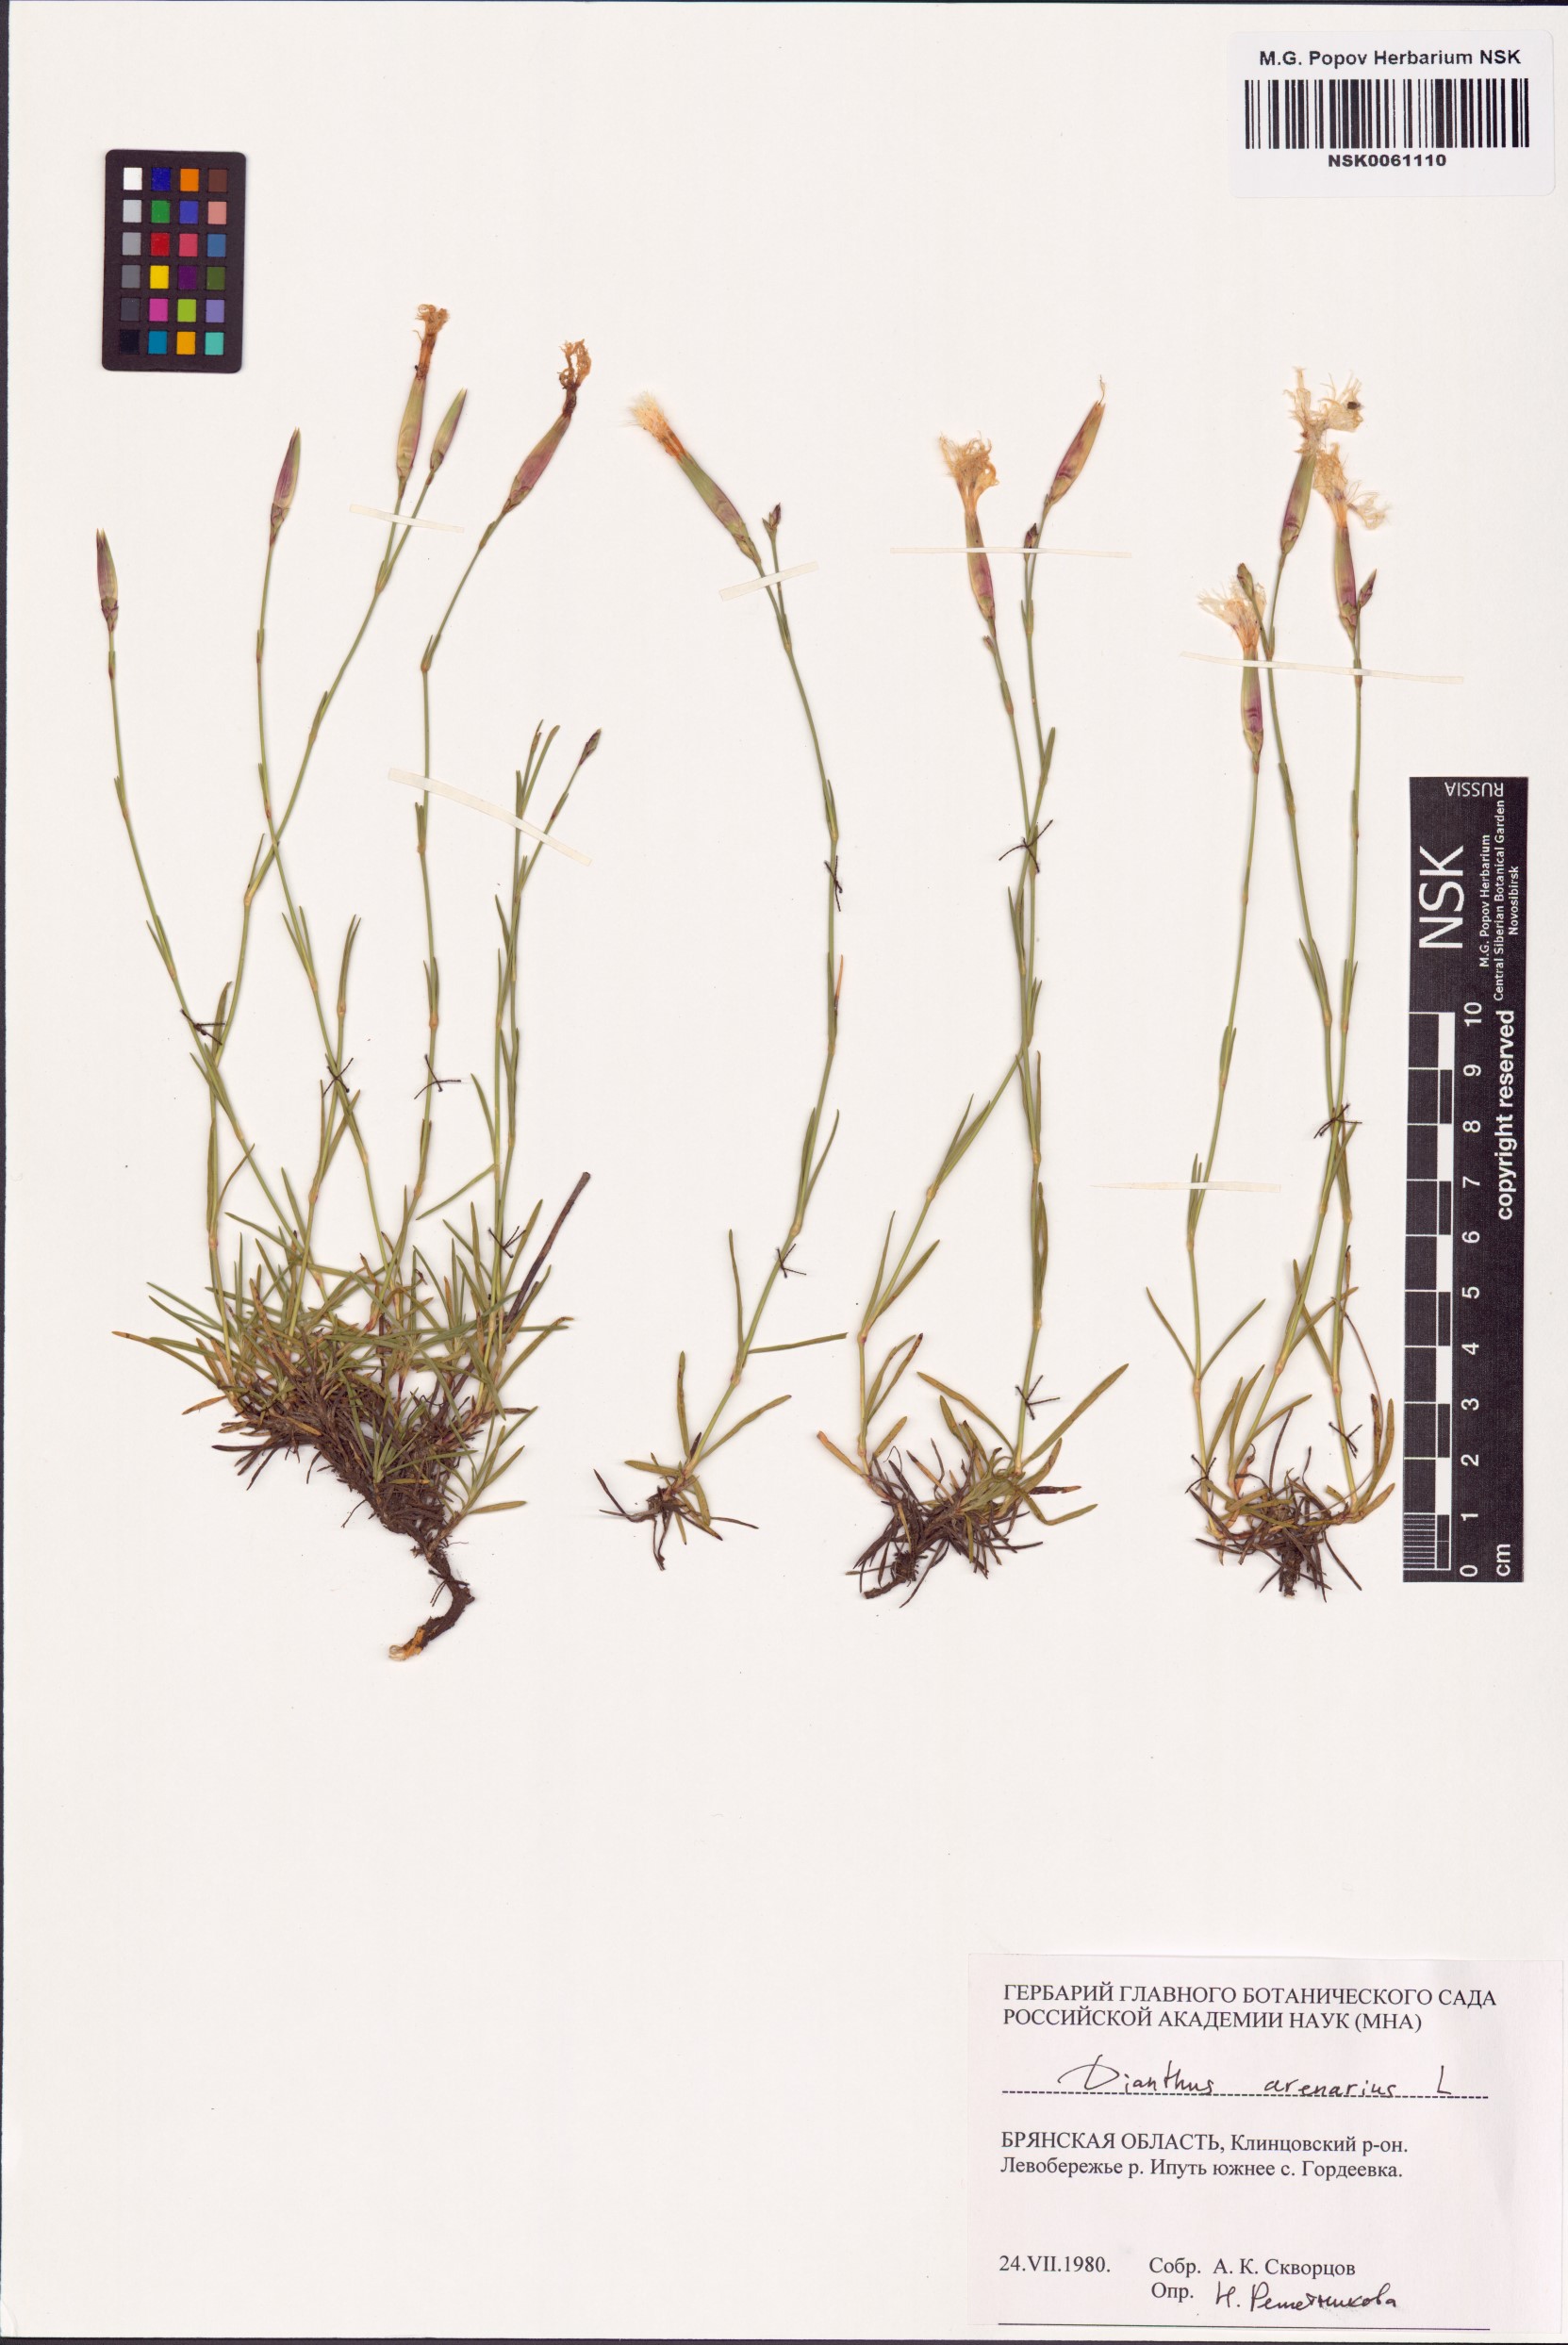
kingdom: Plantae
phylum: Tracheophyta
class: Magnoliopsida
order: Caryophyllales
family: Caryophyllaceae
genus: Dianthus
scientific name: Dianthus arenarius
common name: Stone pink
